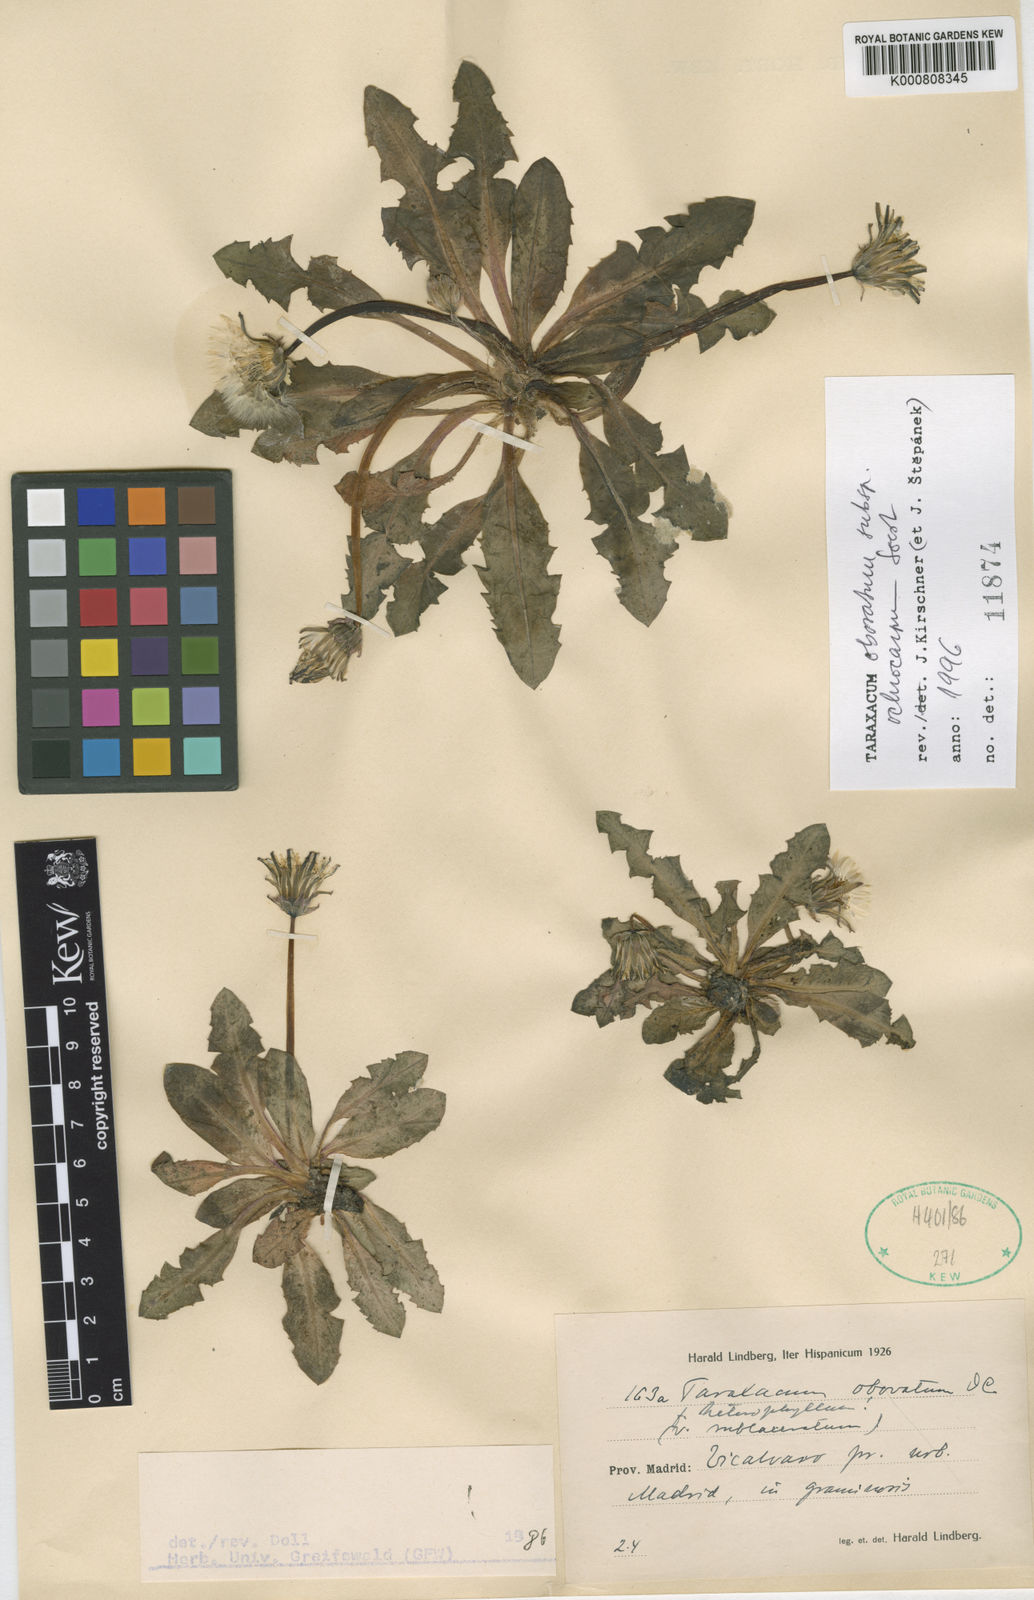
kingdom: Plantae
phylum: Tracheophyta
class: Magnoliopsida
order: Asterales
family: Asteraceae
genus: Taraxacum
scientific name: Taraxacum obovatum
